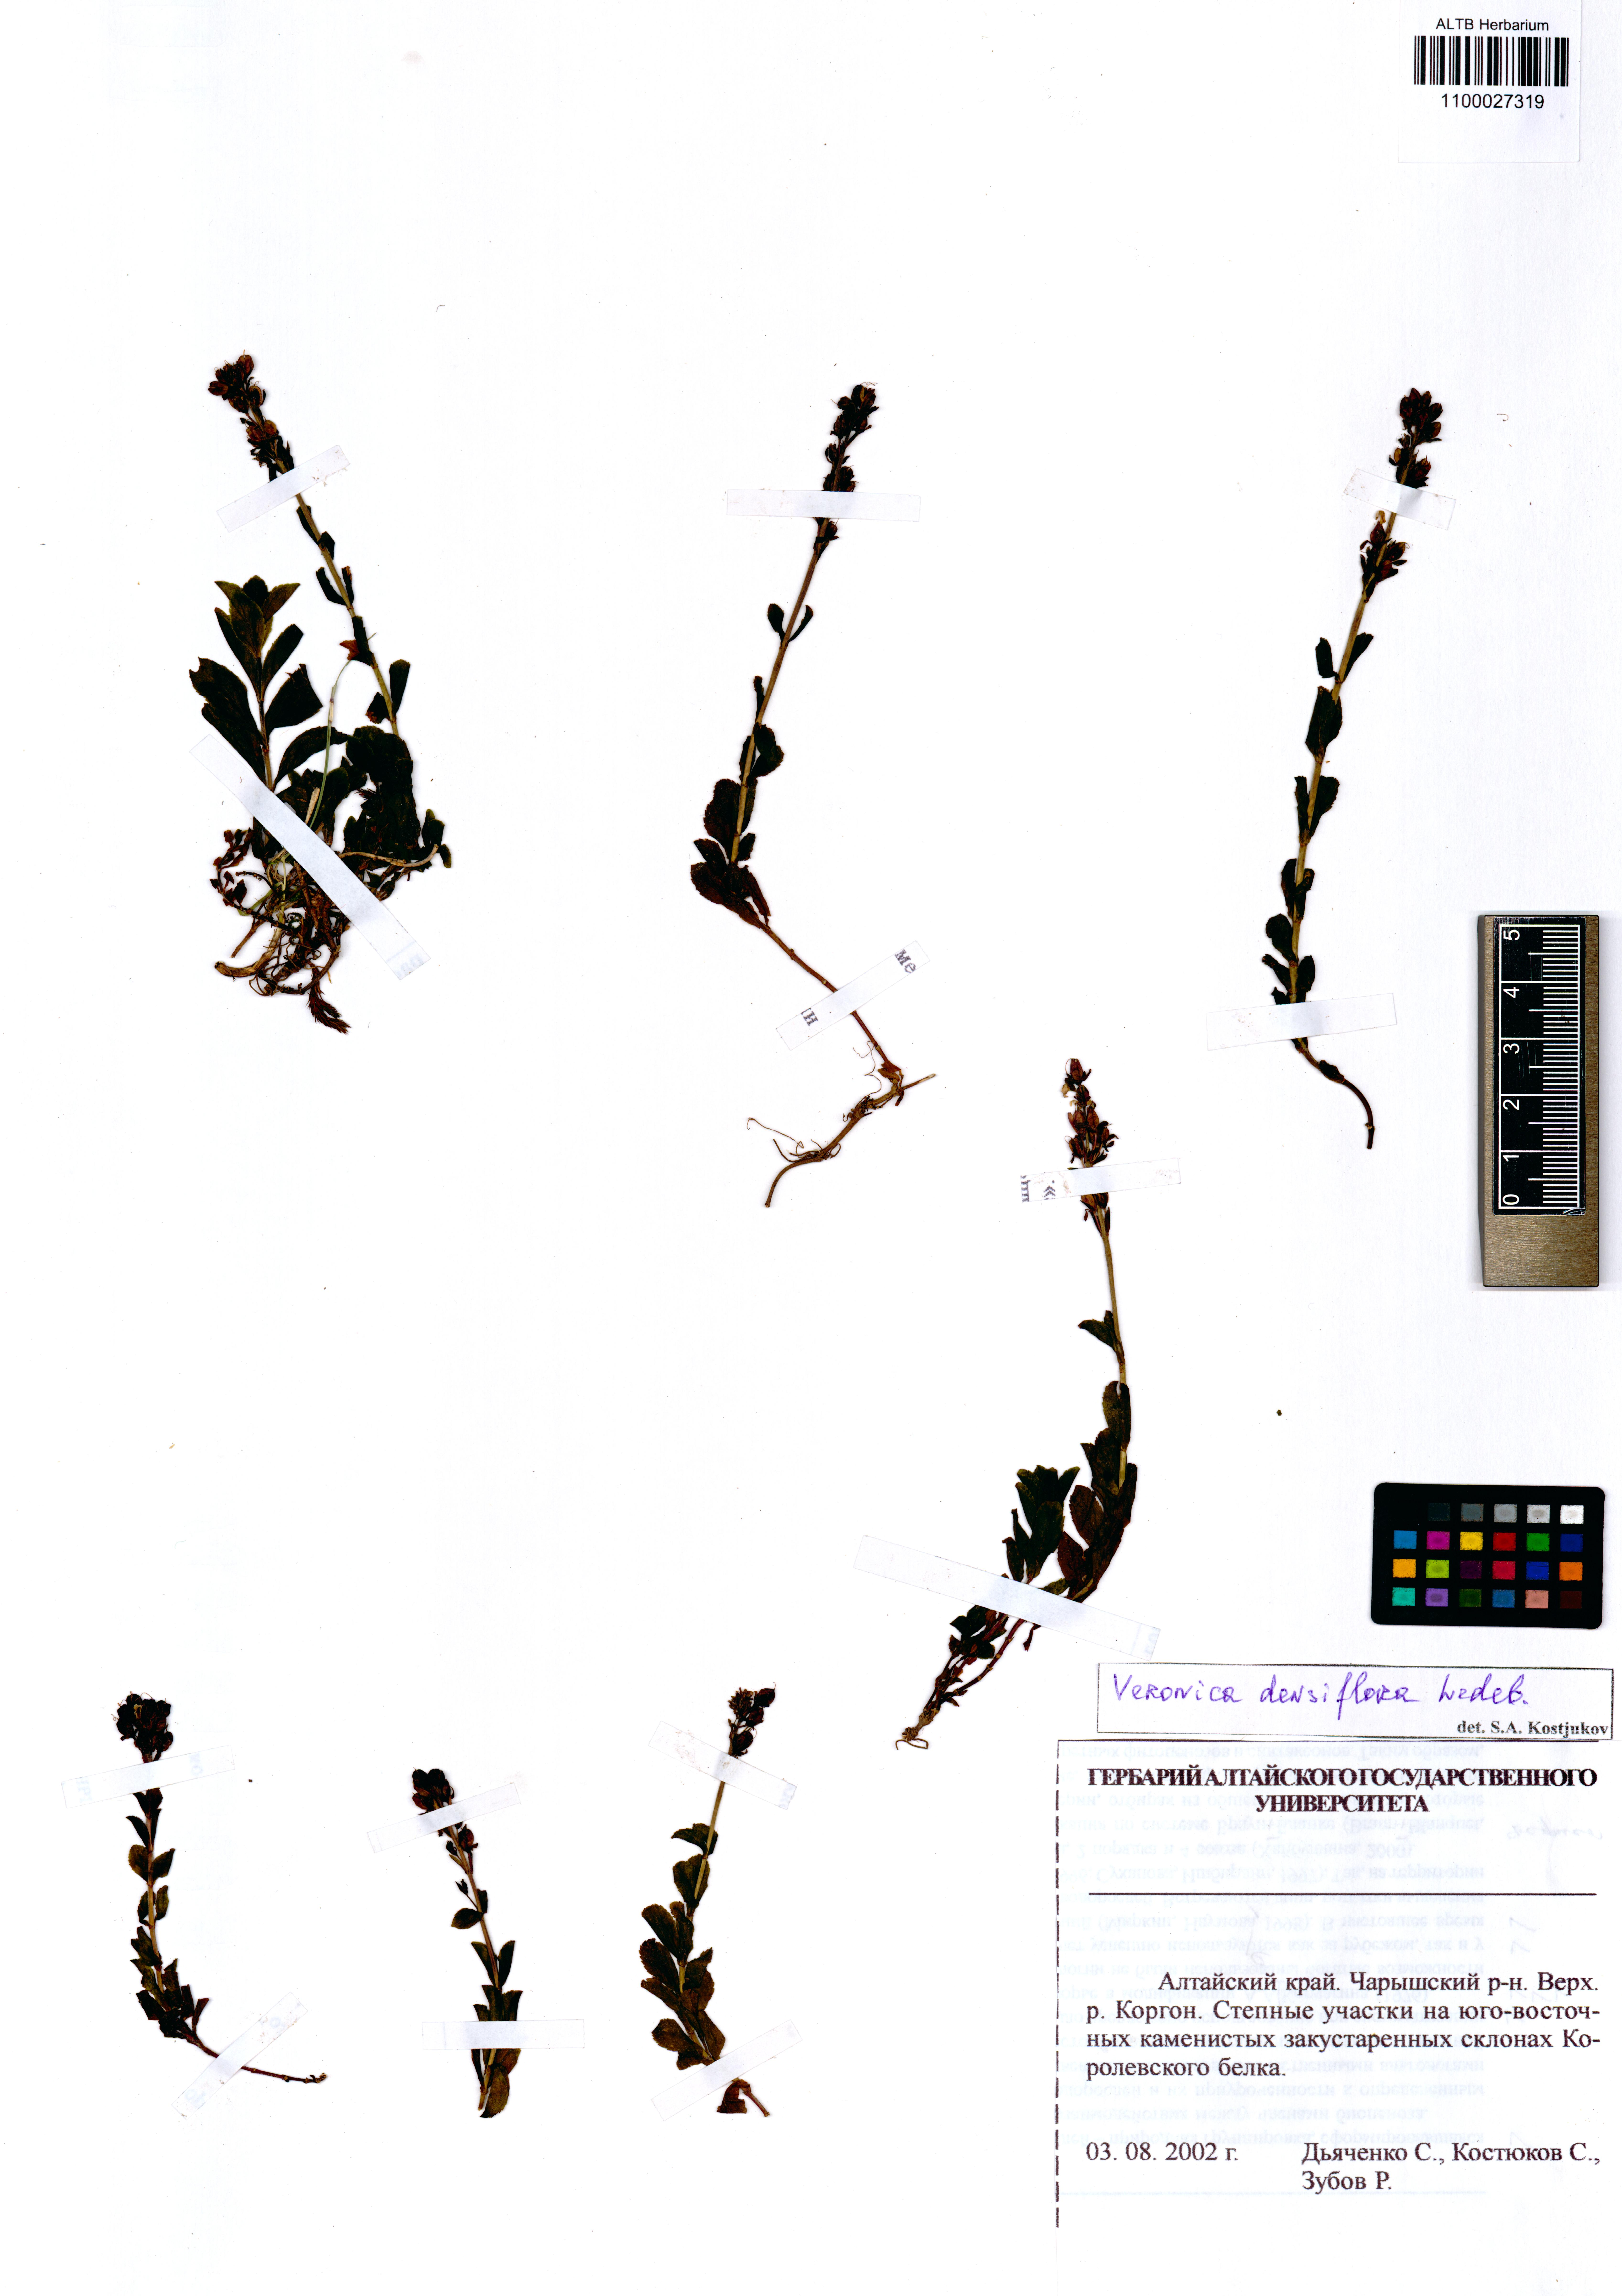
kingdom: Plantae
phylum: Tracheophyta
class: Magnoliopsida
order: Lamiales
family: Plantaginaceae
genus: Veronica
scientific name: Veronica densiflora
